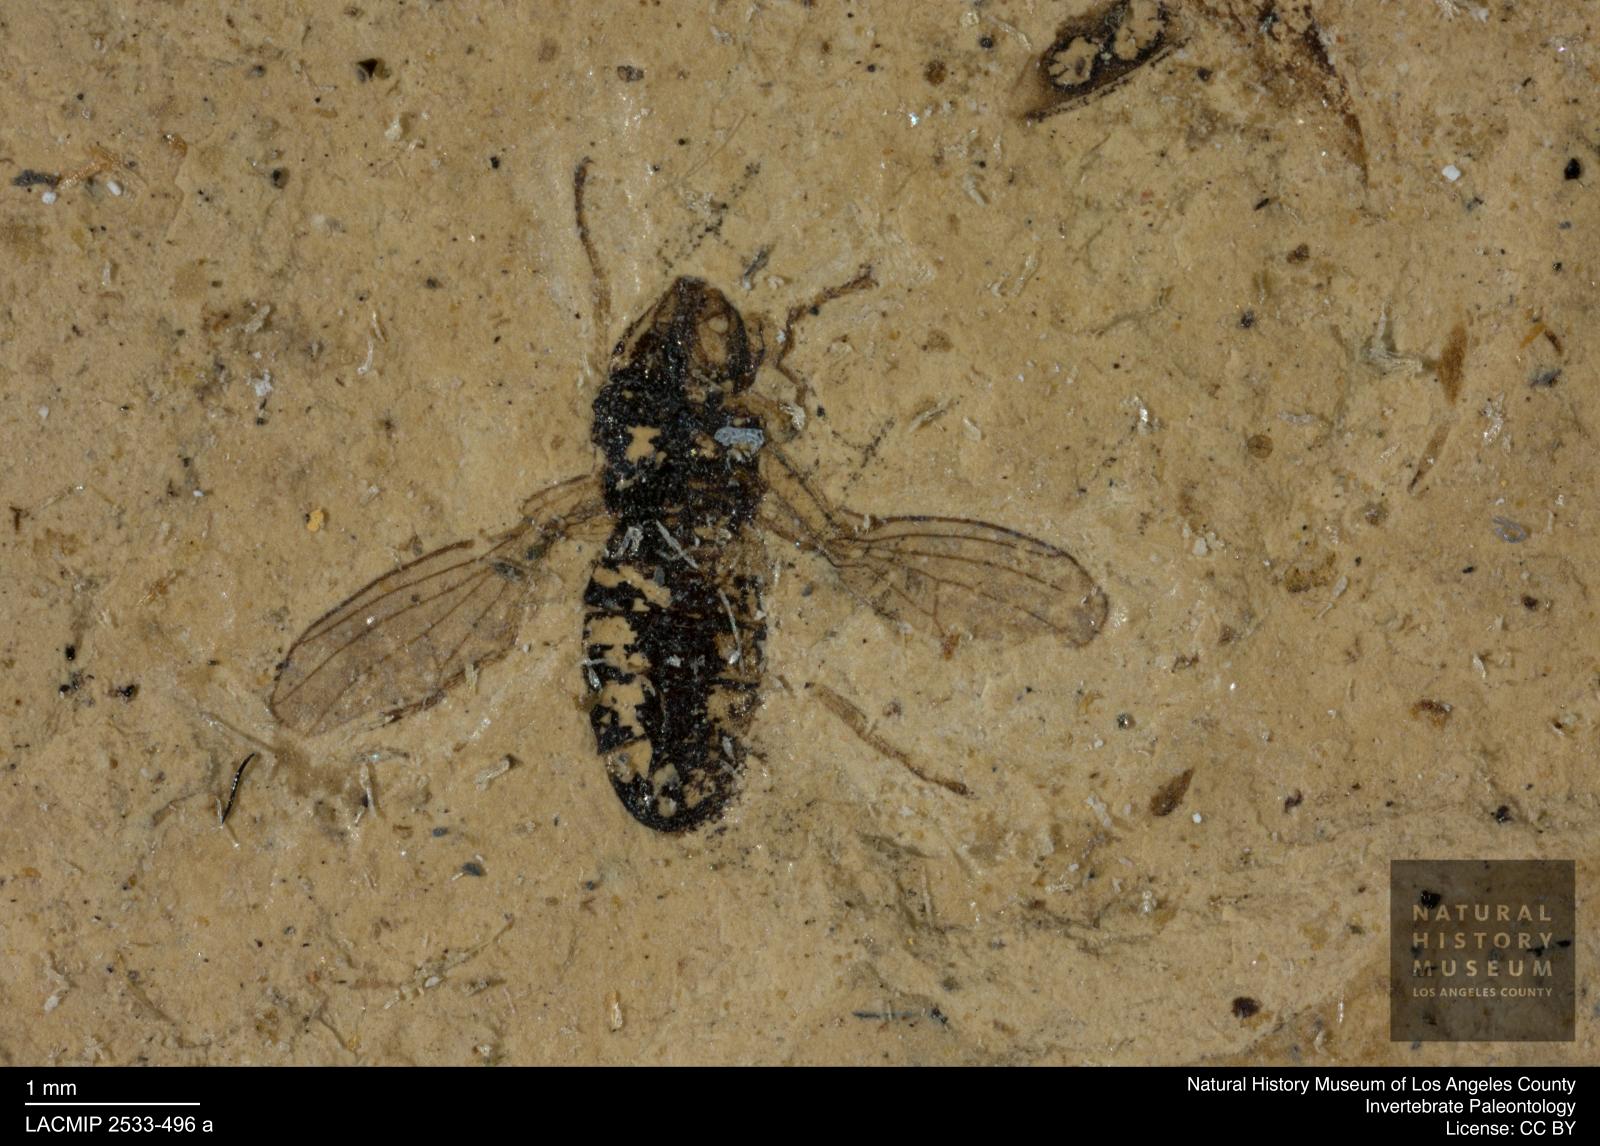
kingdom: Animalia
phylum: Arthropoda
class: Insecta
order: Diptera
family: Drosophilidae
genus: Drosophila
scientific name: Drosophila blanda
